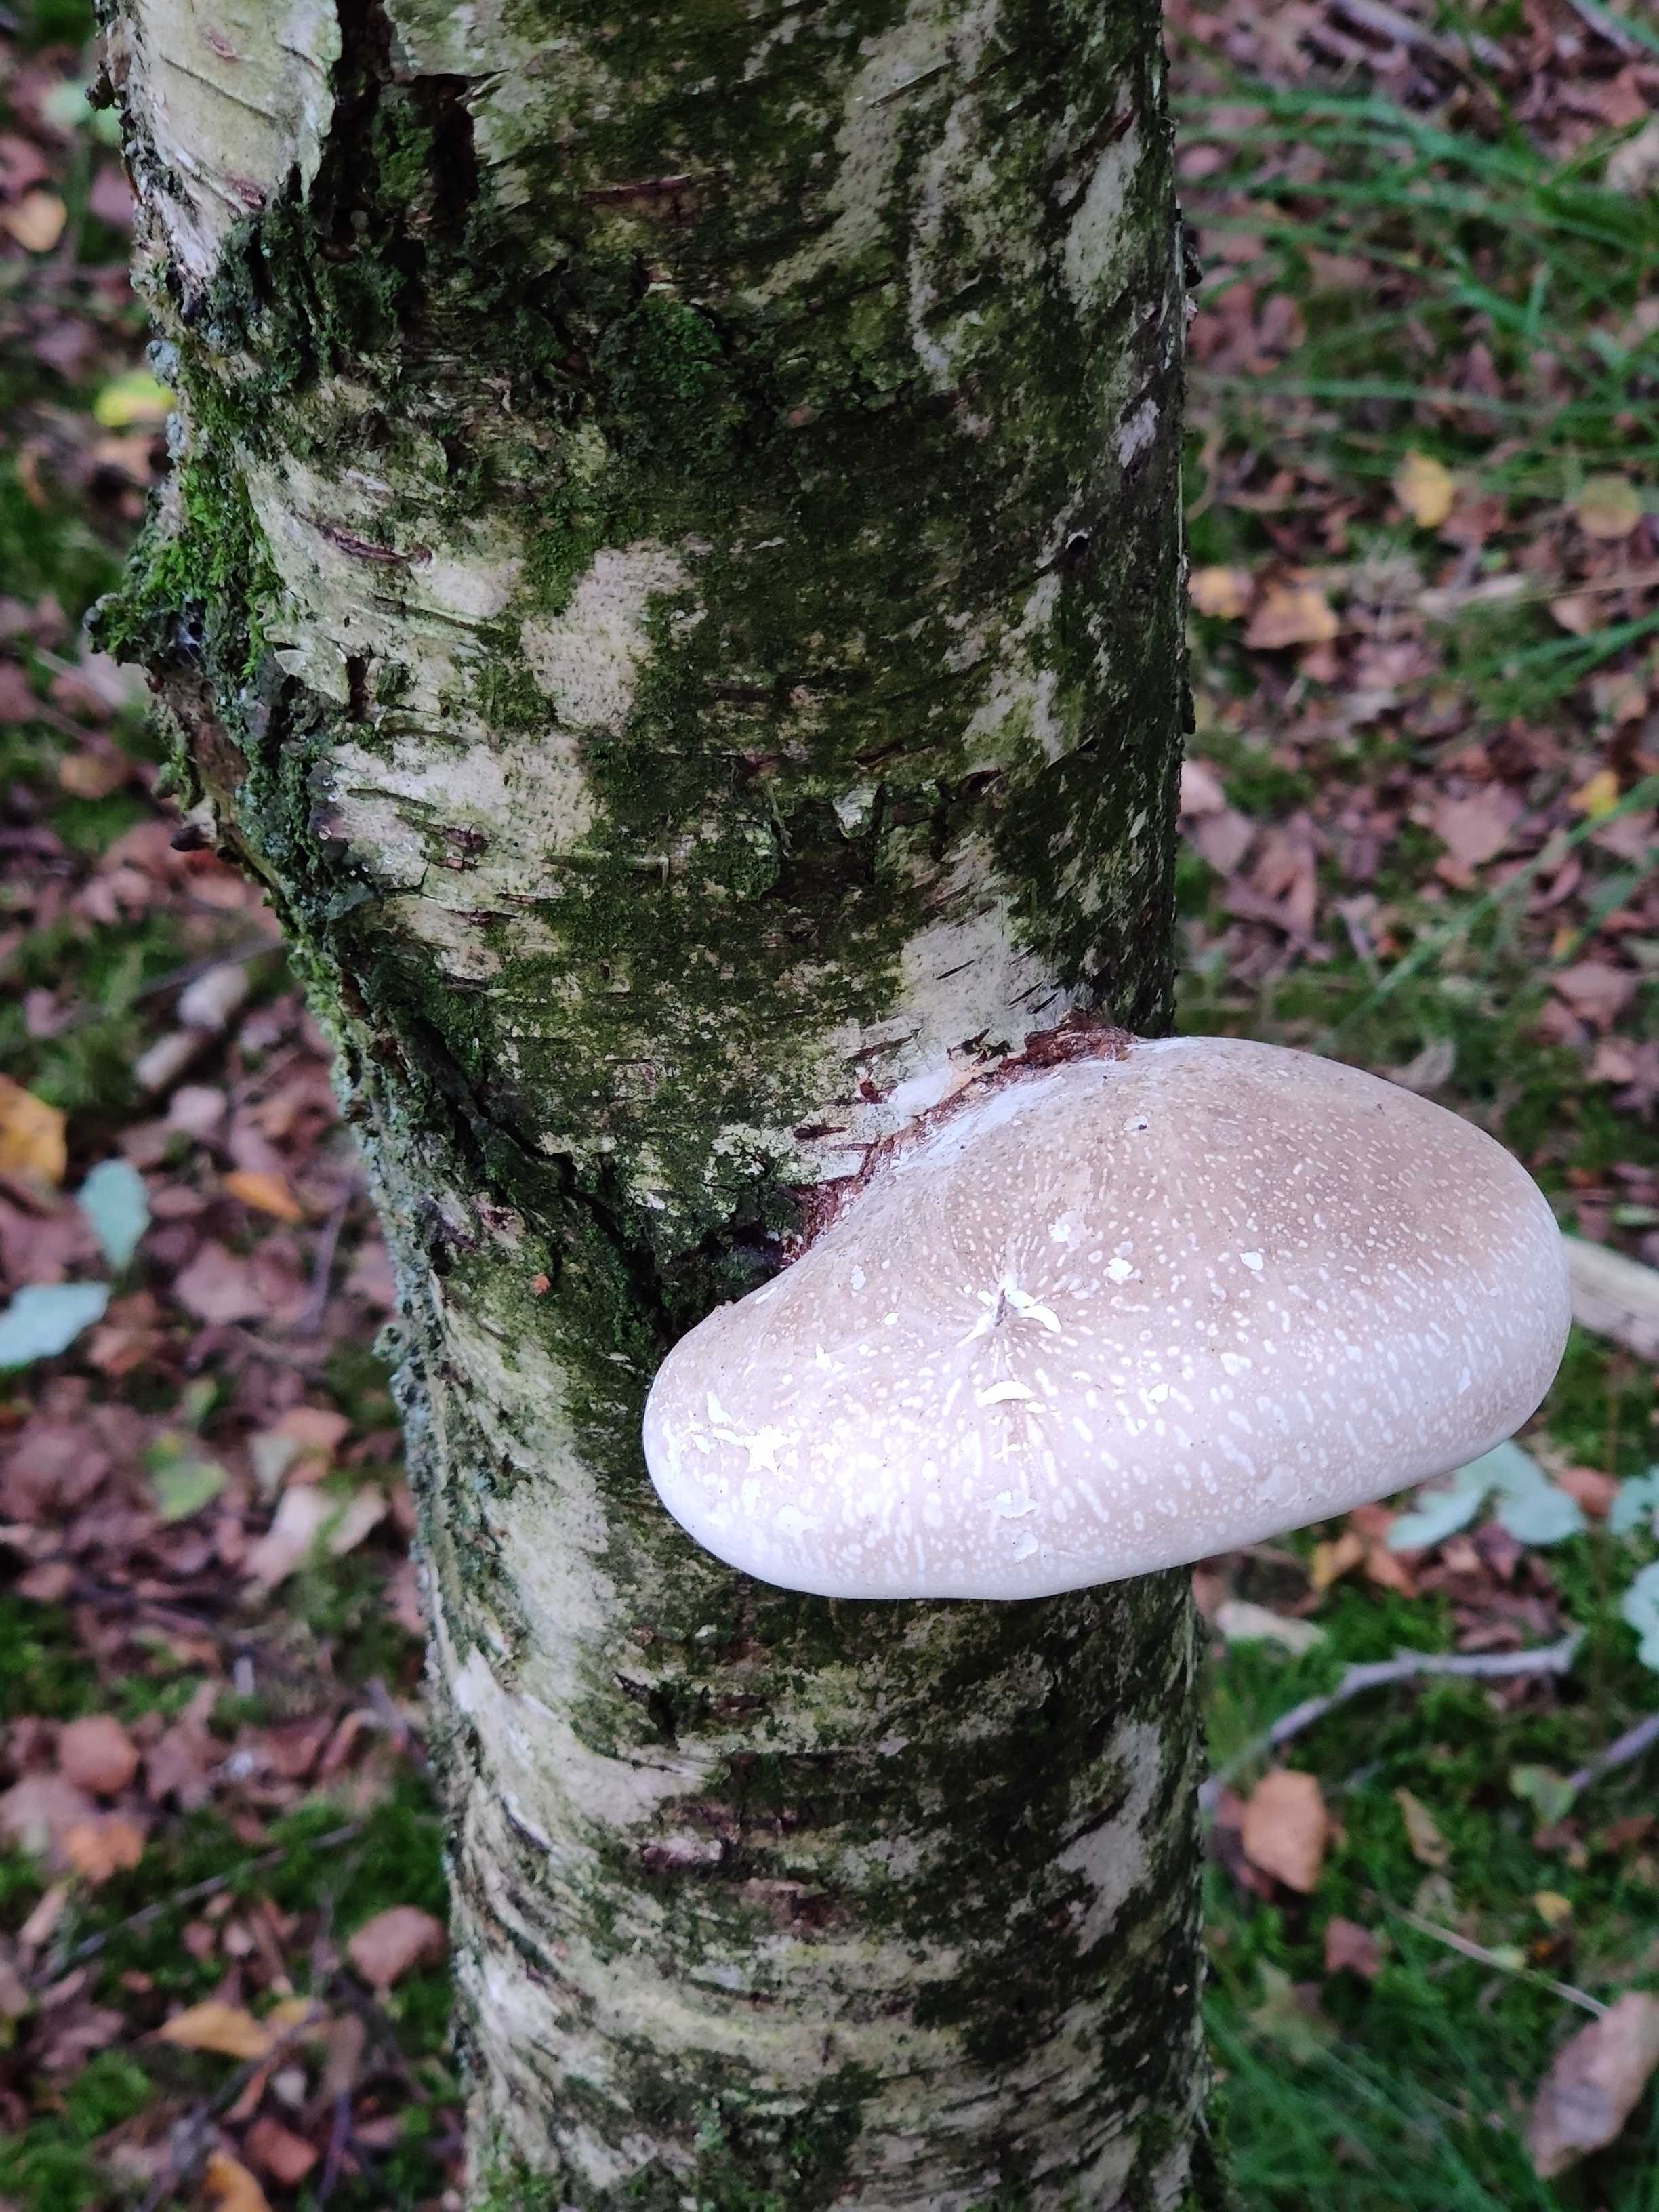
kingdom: Fungi
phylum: Basidiomycota
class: Agaricomycetes
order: Polyporales
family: Fomitopsidaceae
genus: Fomitopsis
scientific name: Fomitopsis betulina
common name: birkeporesvamp
